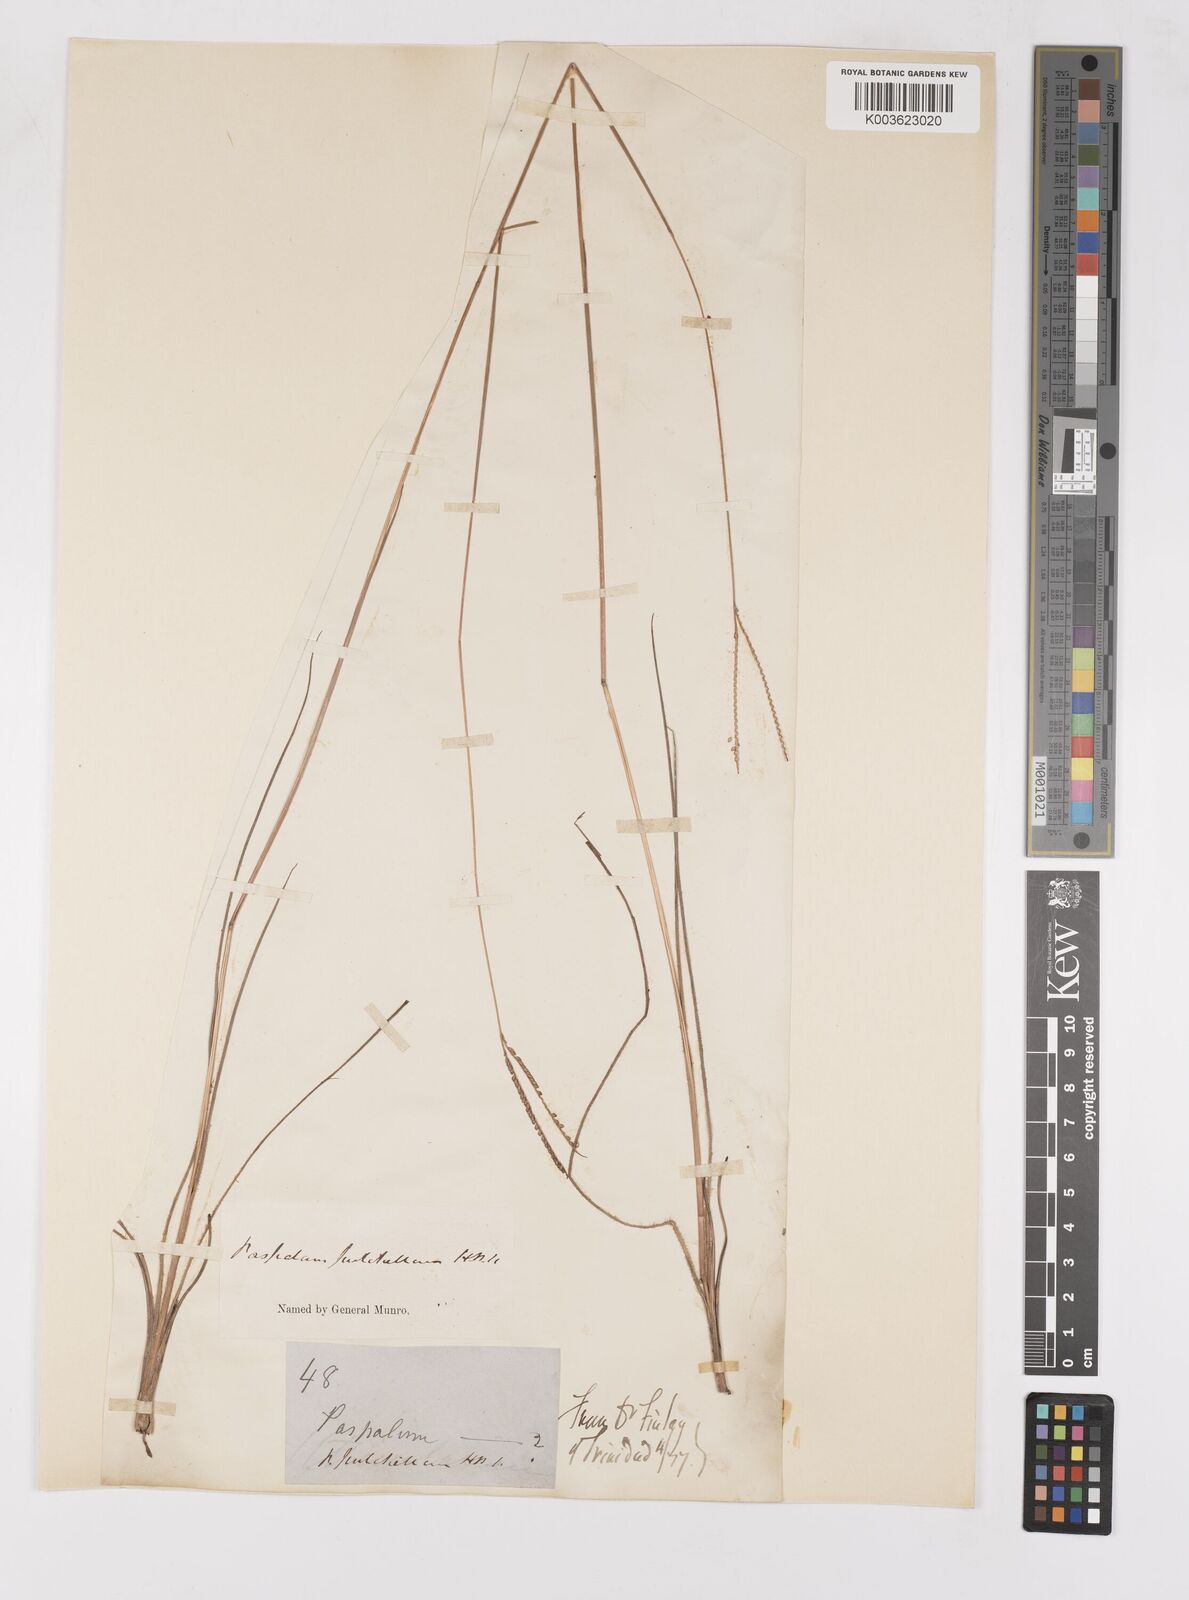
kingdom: Plantae
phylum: Tracheophyta
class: Liliopsida
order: Poales
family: Poaceae
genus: Paspalum
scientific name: Paspalum pulchellum
